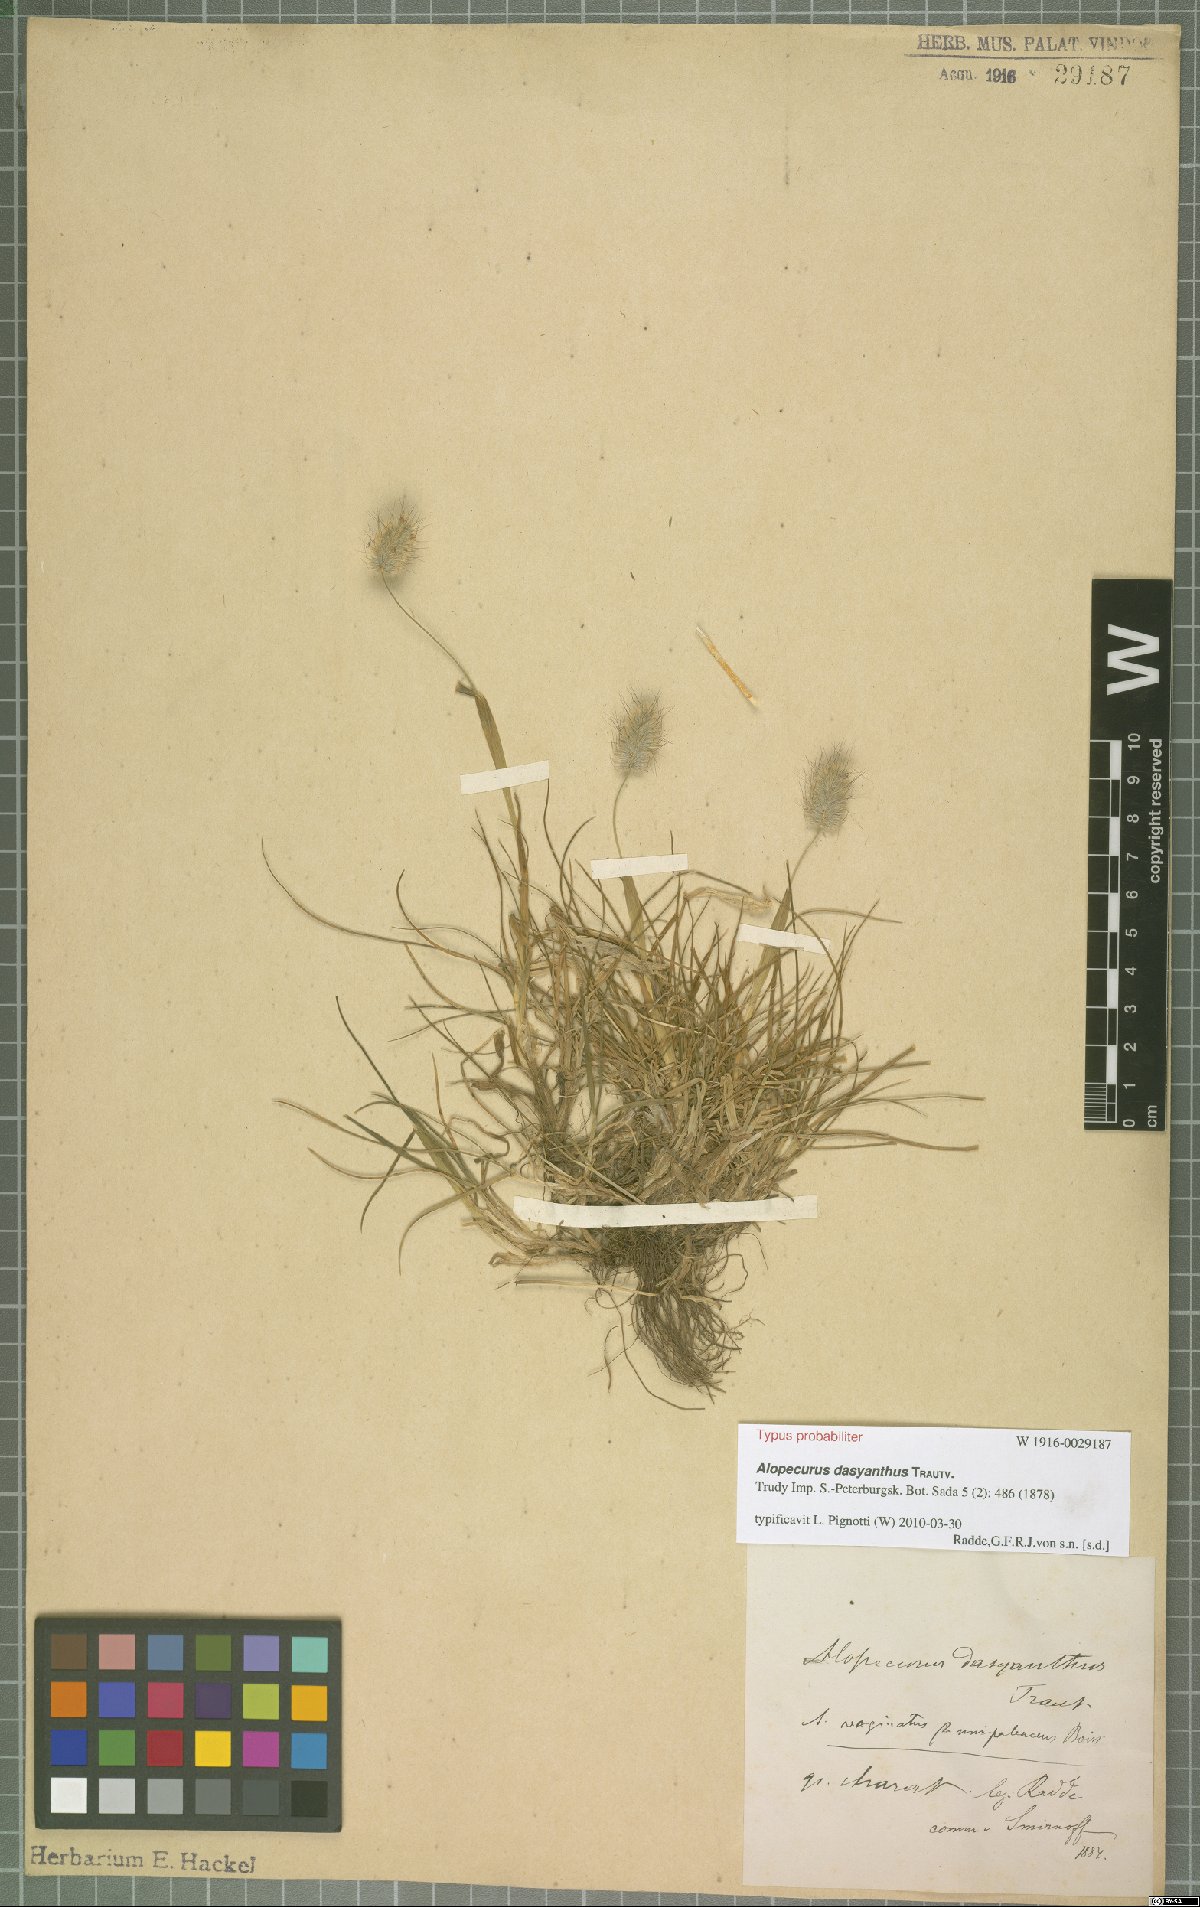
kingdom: Plantae
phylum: Tracheophyta
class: Liliopsida
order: Poales
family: Poaceae
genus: Alopecurus
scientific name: Alopecurus dasyanthus
